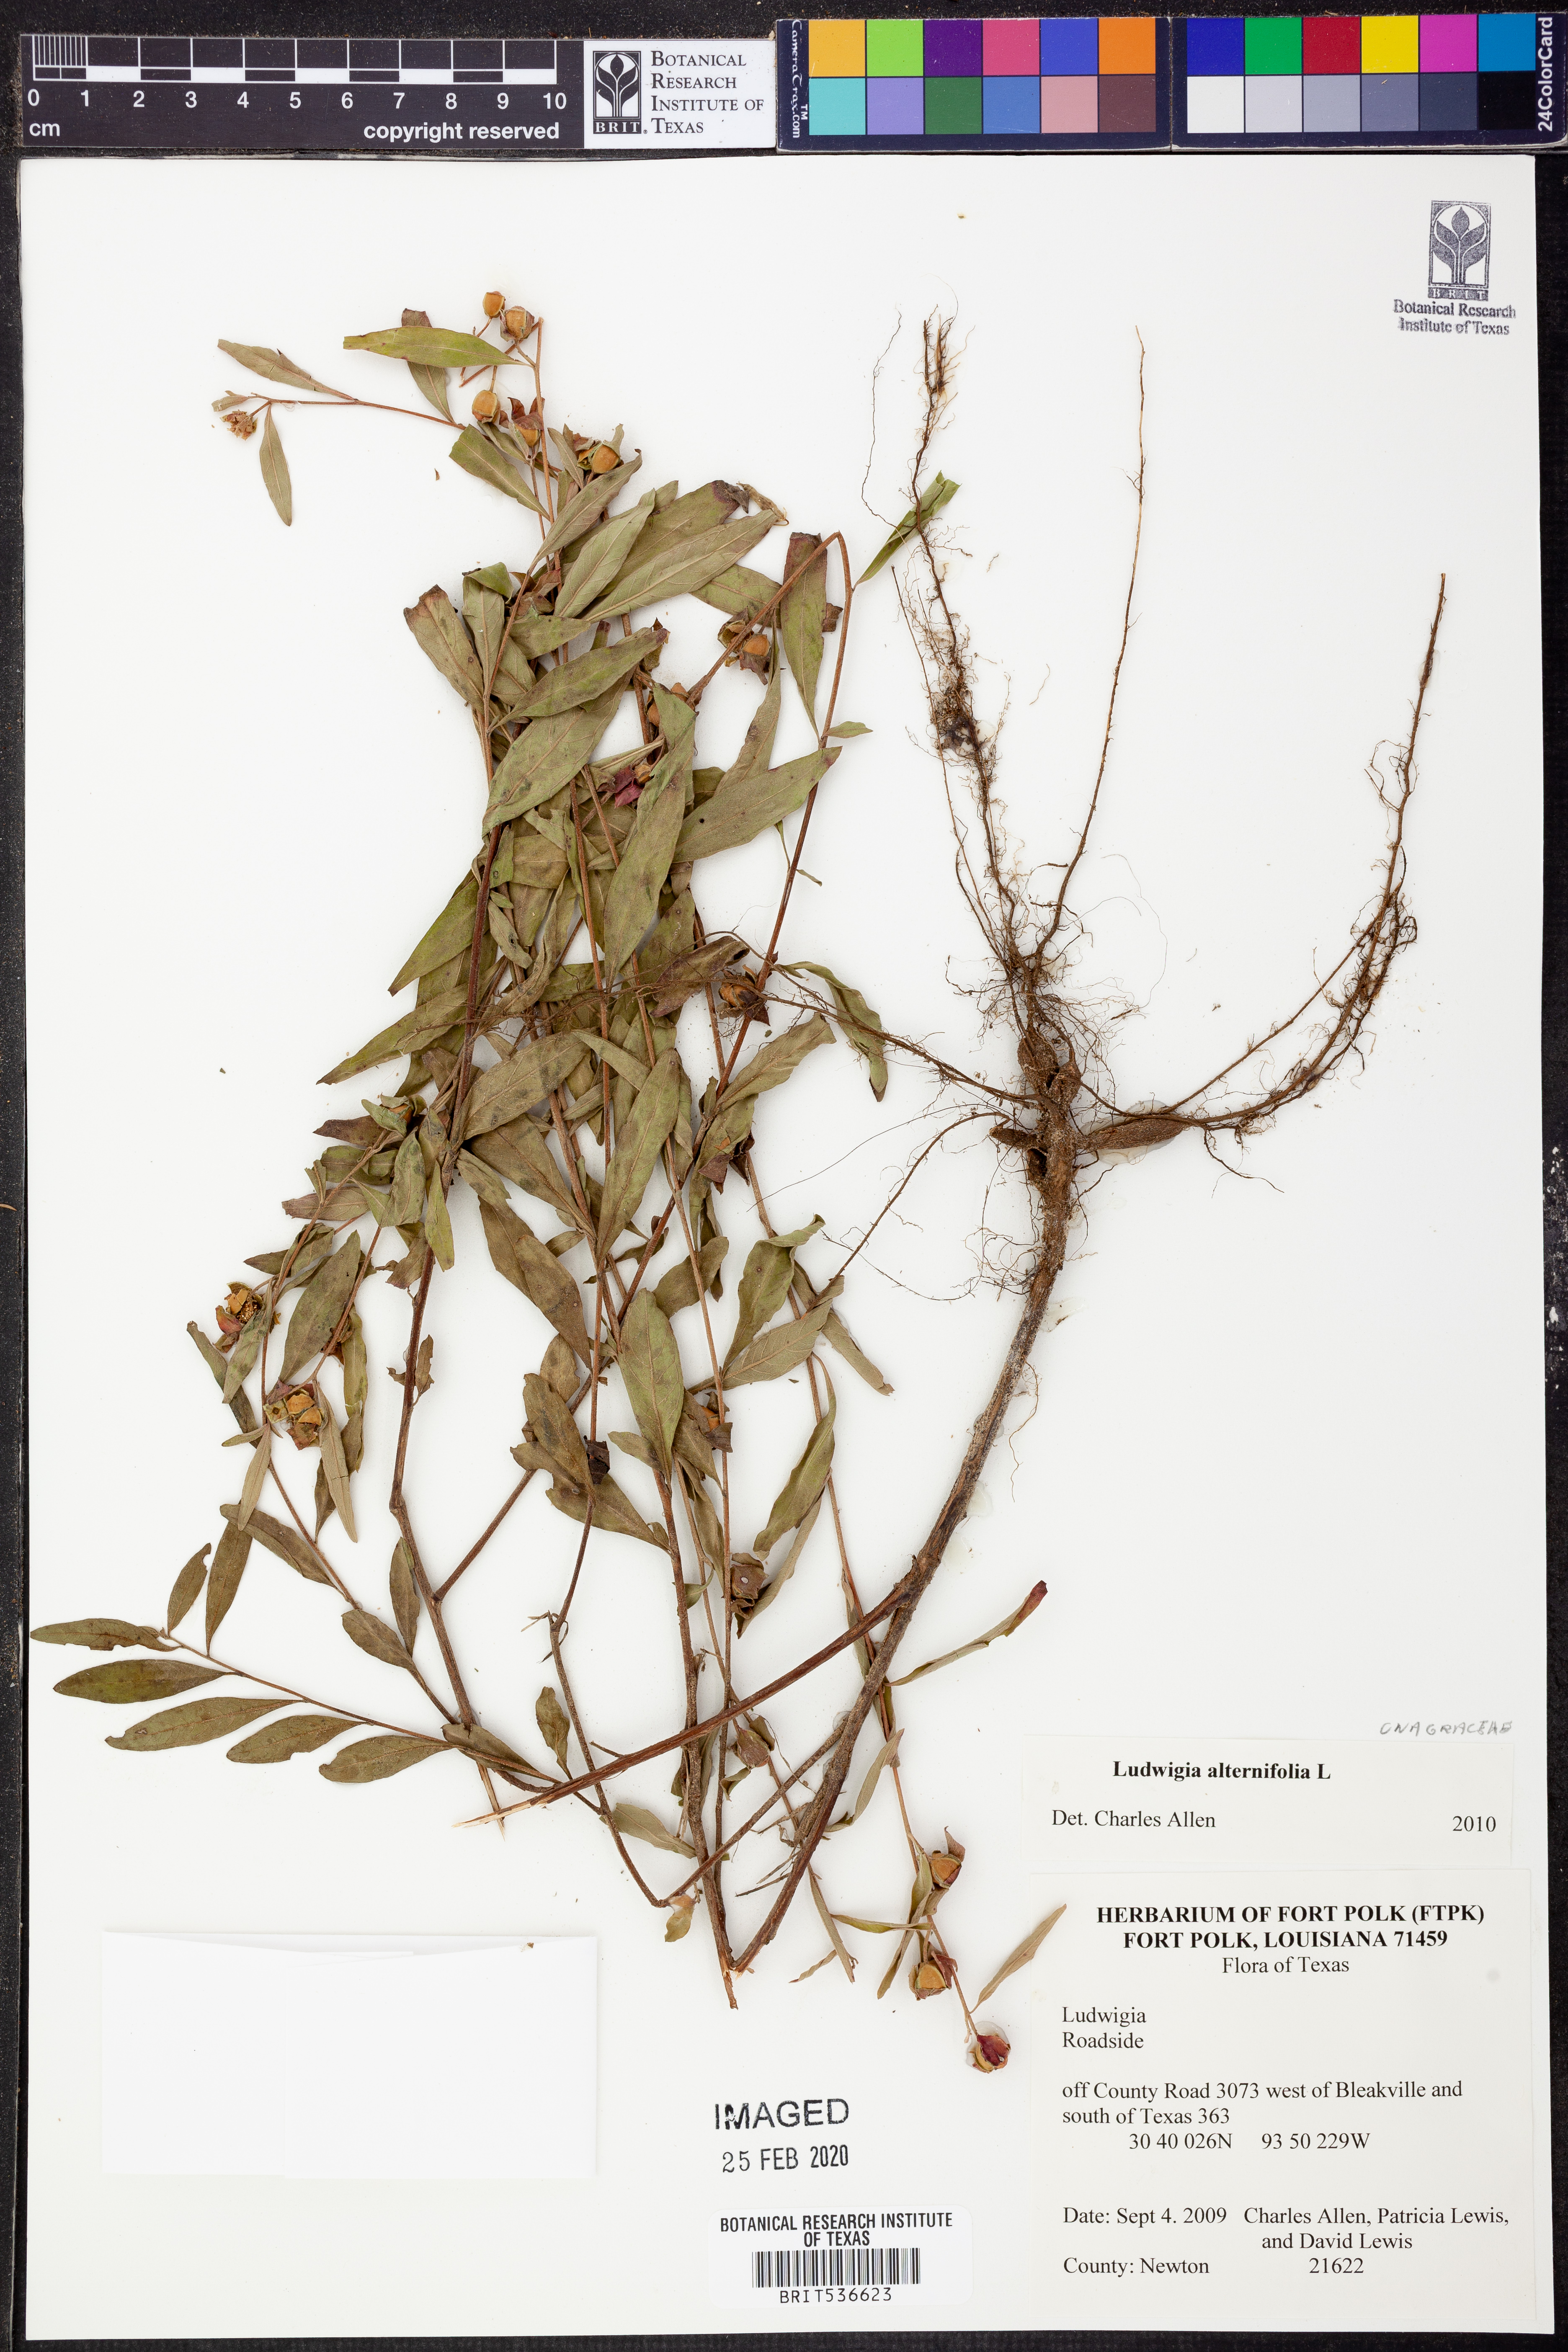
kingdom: Plantae
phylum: Tracheophyta
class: Magnoliopsida
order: Myrtales
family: Onagraceae
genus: Ludwigia
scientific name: Ludwigia alternifolia
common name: Rattlebox
